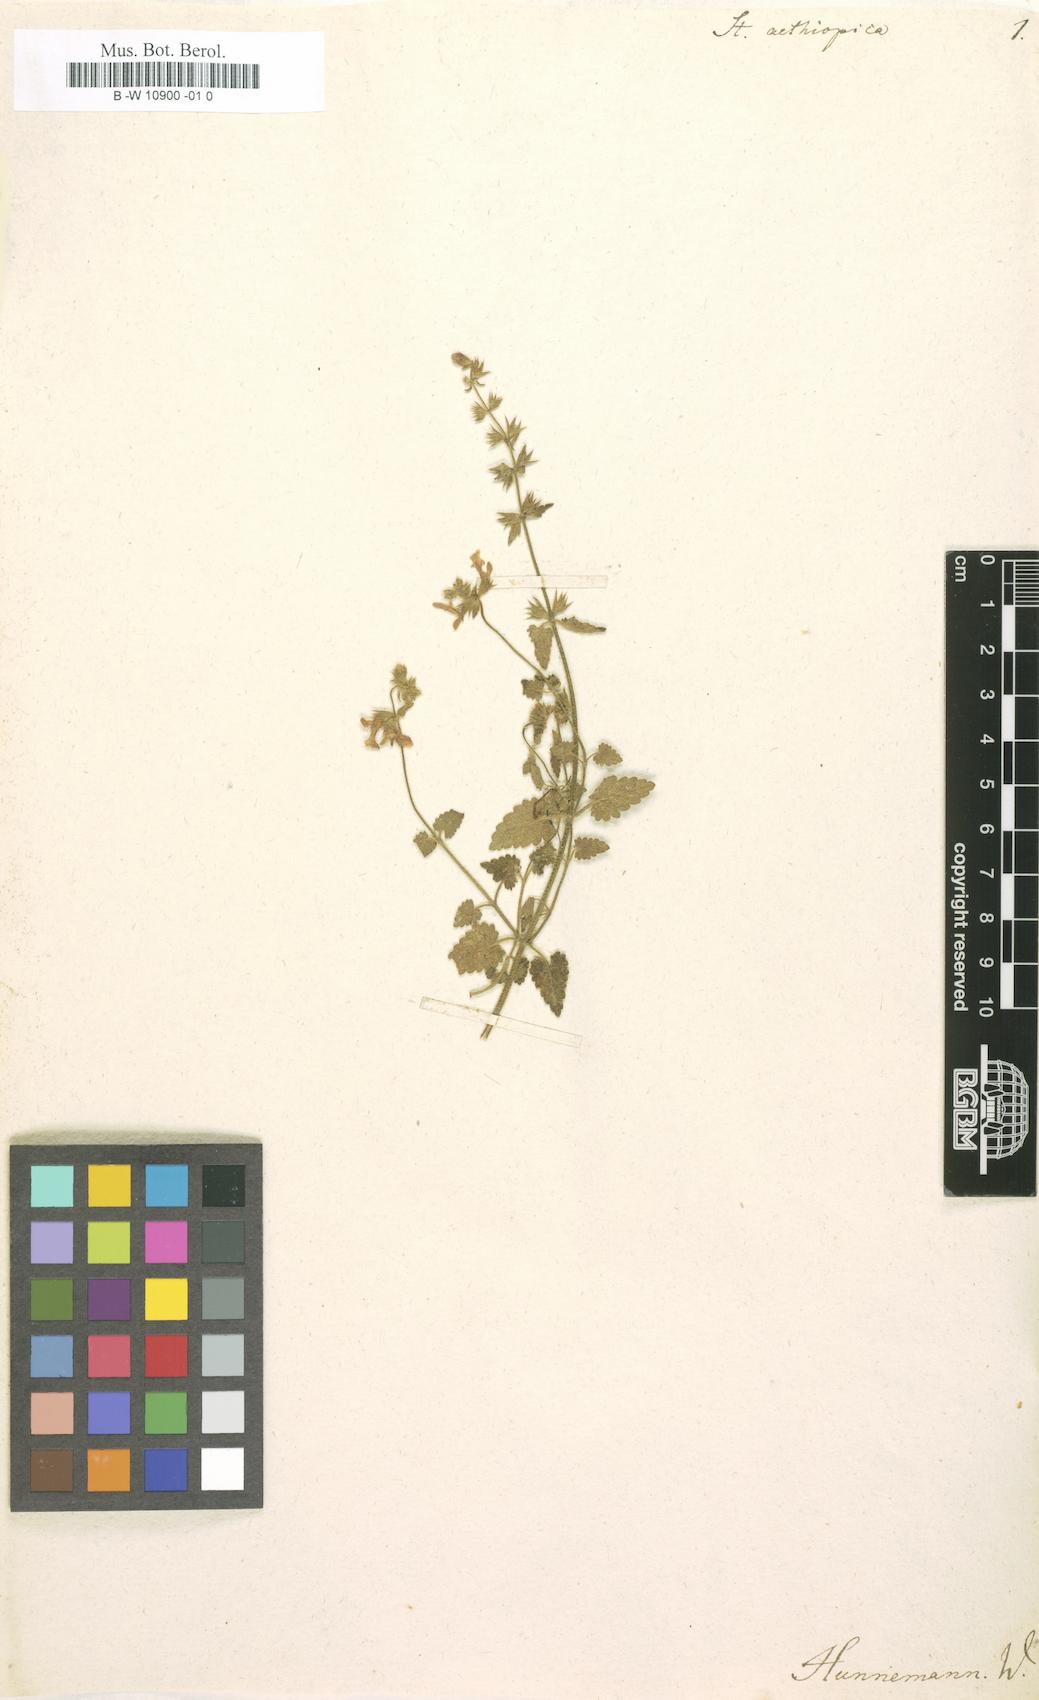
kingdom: Plantae
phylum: Tracheophyta
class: Magnoliopsida
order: Lamiales
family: Lamiaceae
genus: Stachys
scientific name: Stachys aethiopica
